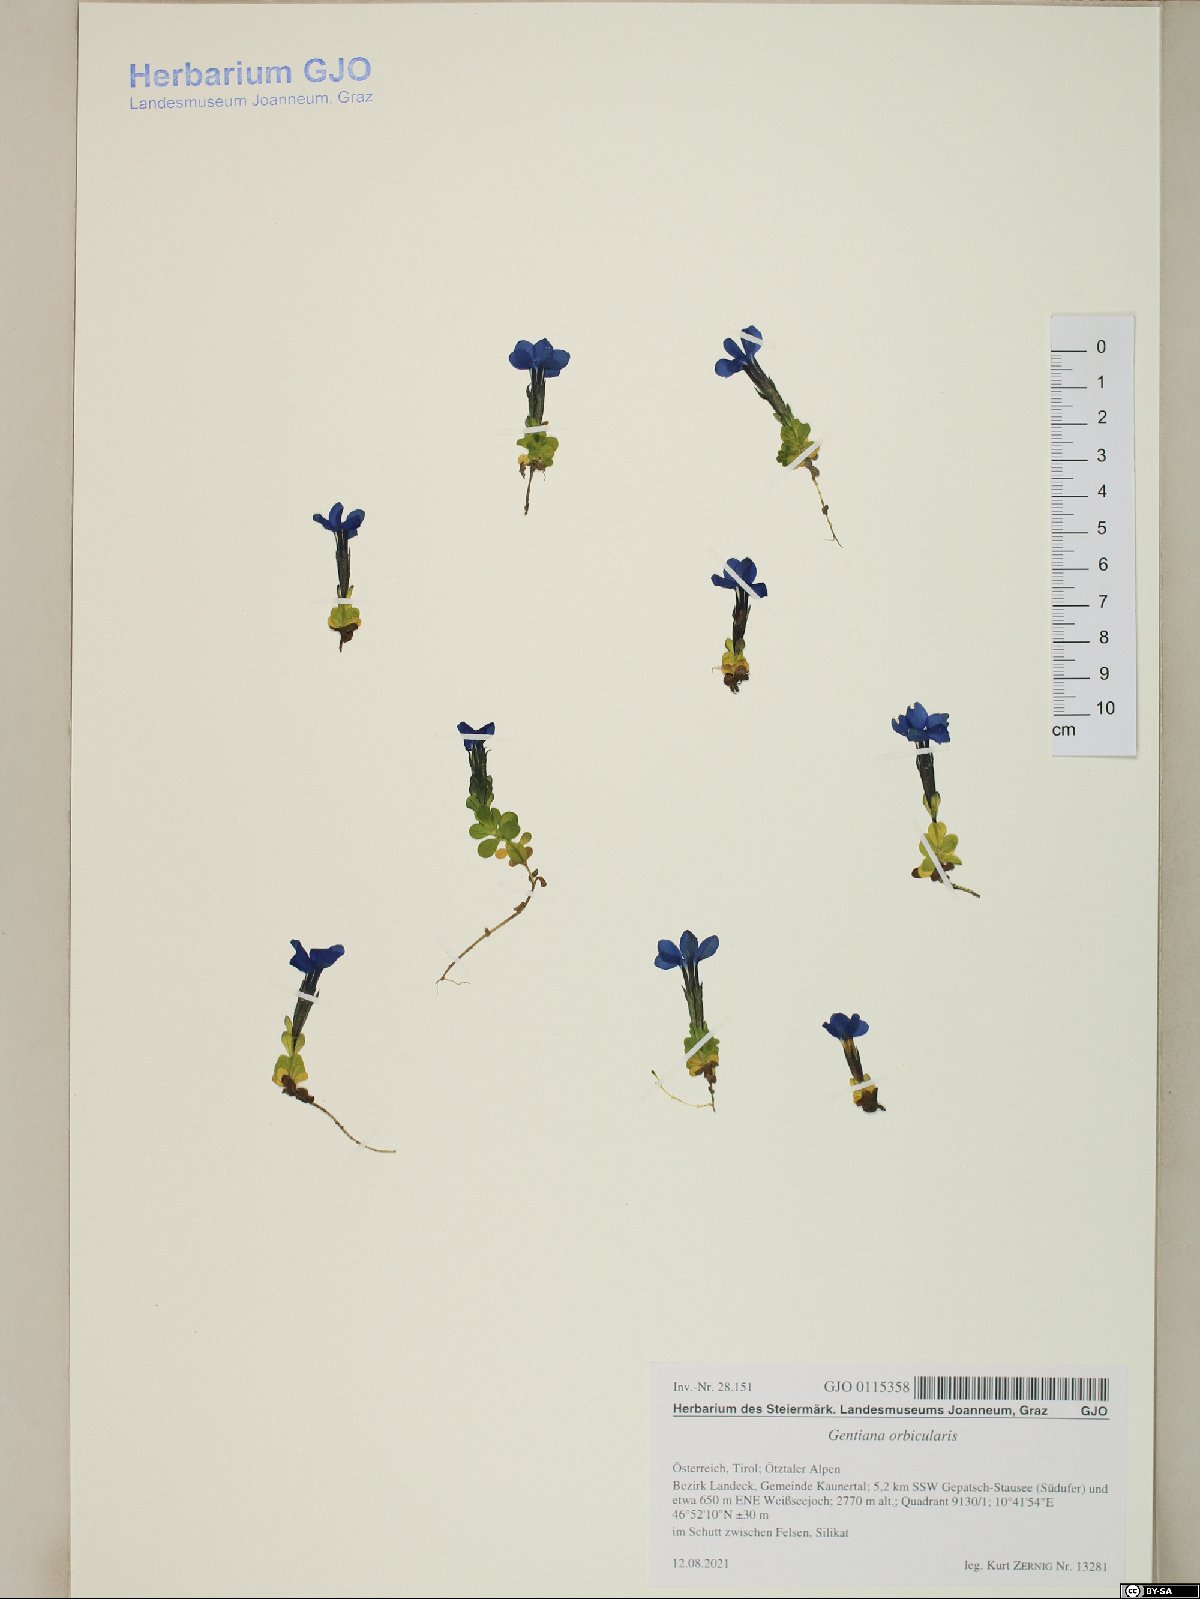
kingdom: Plantae
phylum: Tracheophyta
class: Magnoliopsida
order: Gentianales
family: Gentianaceae
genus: Gentiana
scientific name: Gentiana orbicularis
